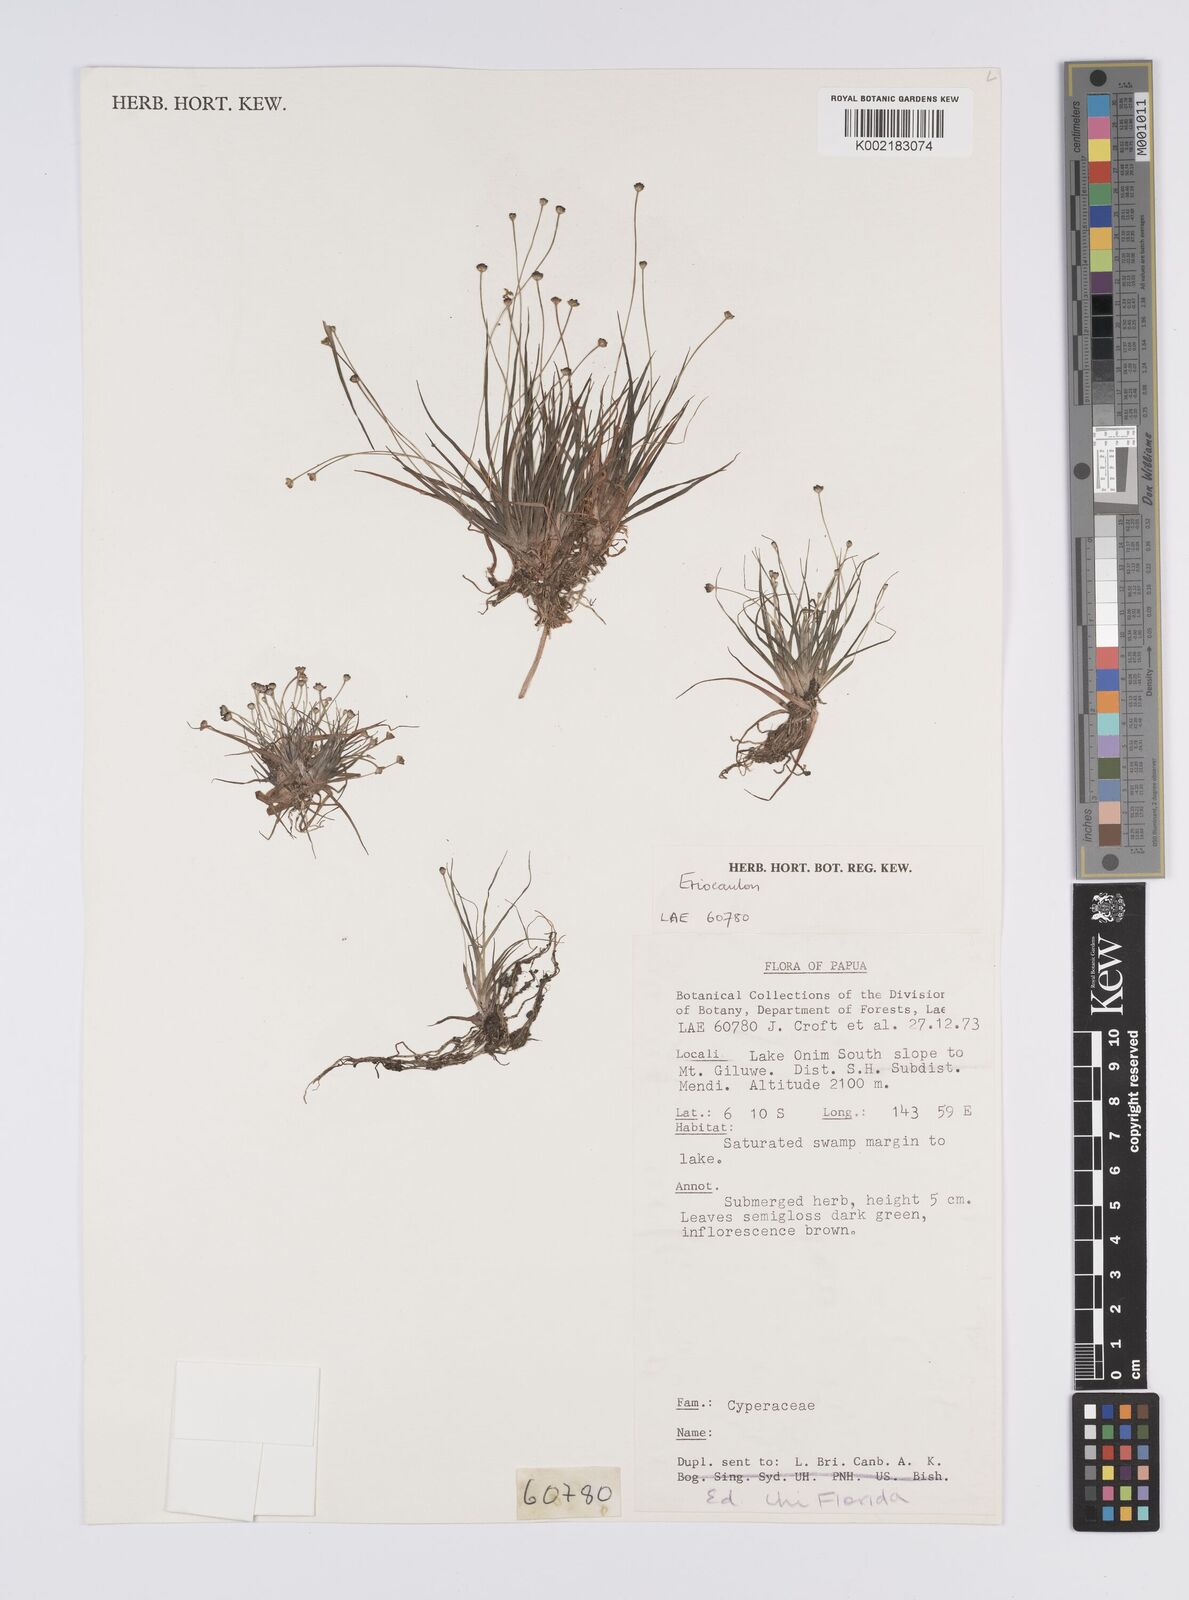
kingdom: Plantae
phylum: Tracheophyta
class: Liliopsida
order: Poales
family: Eriocaulaceae
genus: Eriocaulon
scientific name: Eriocaulon
